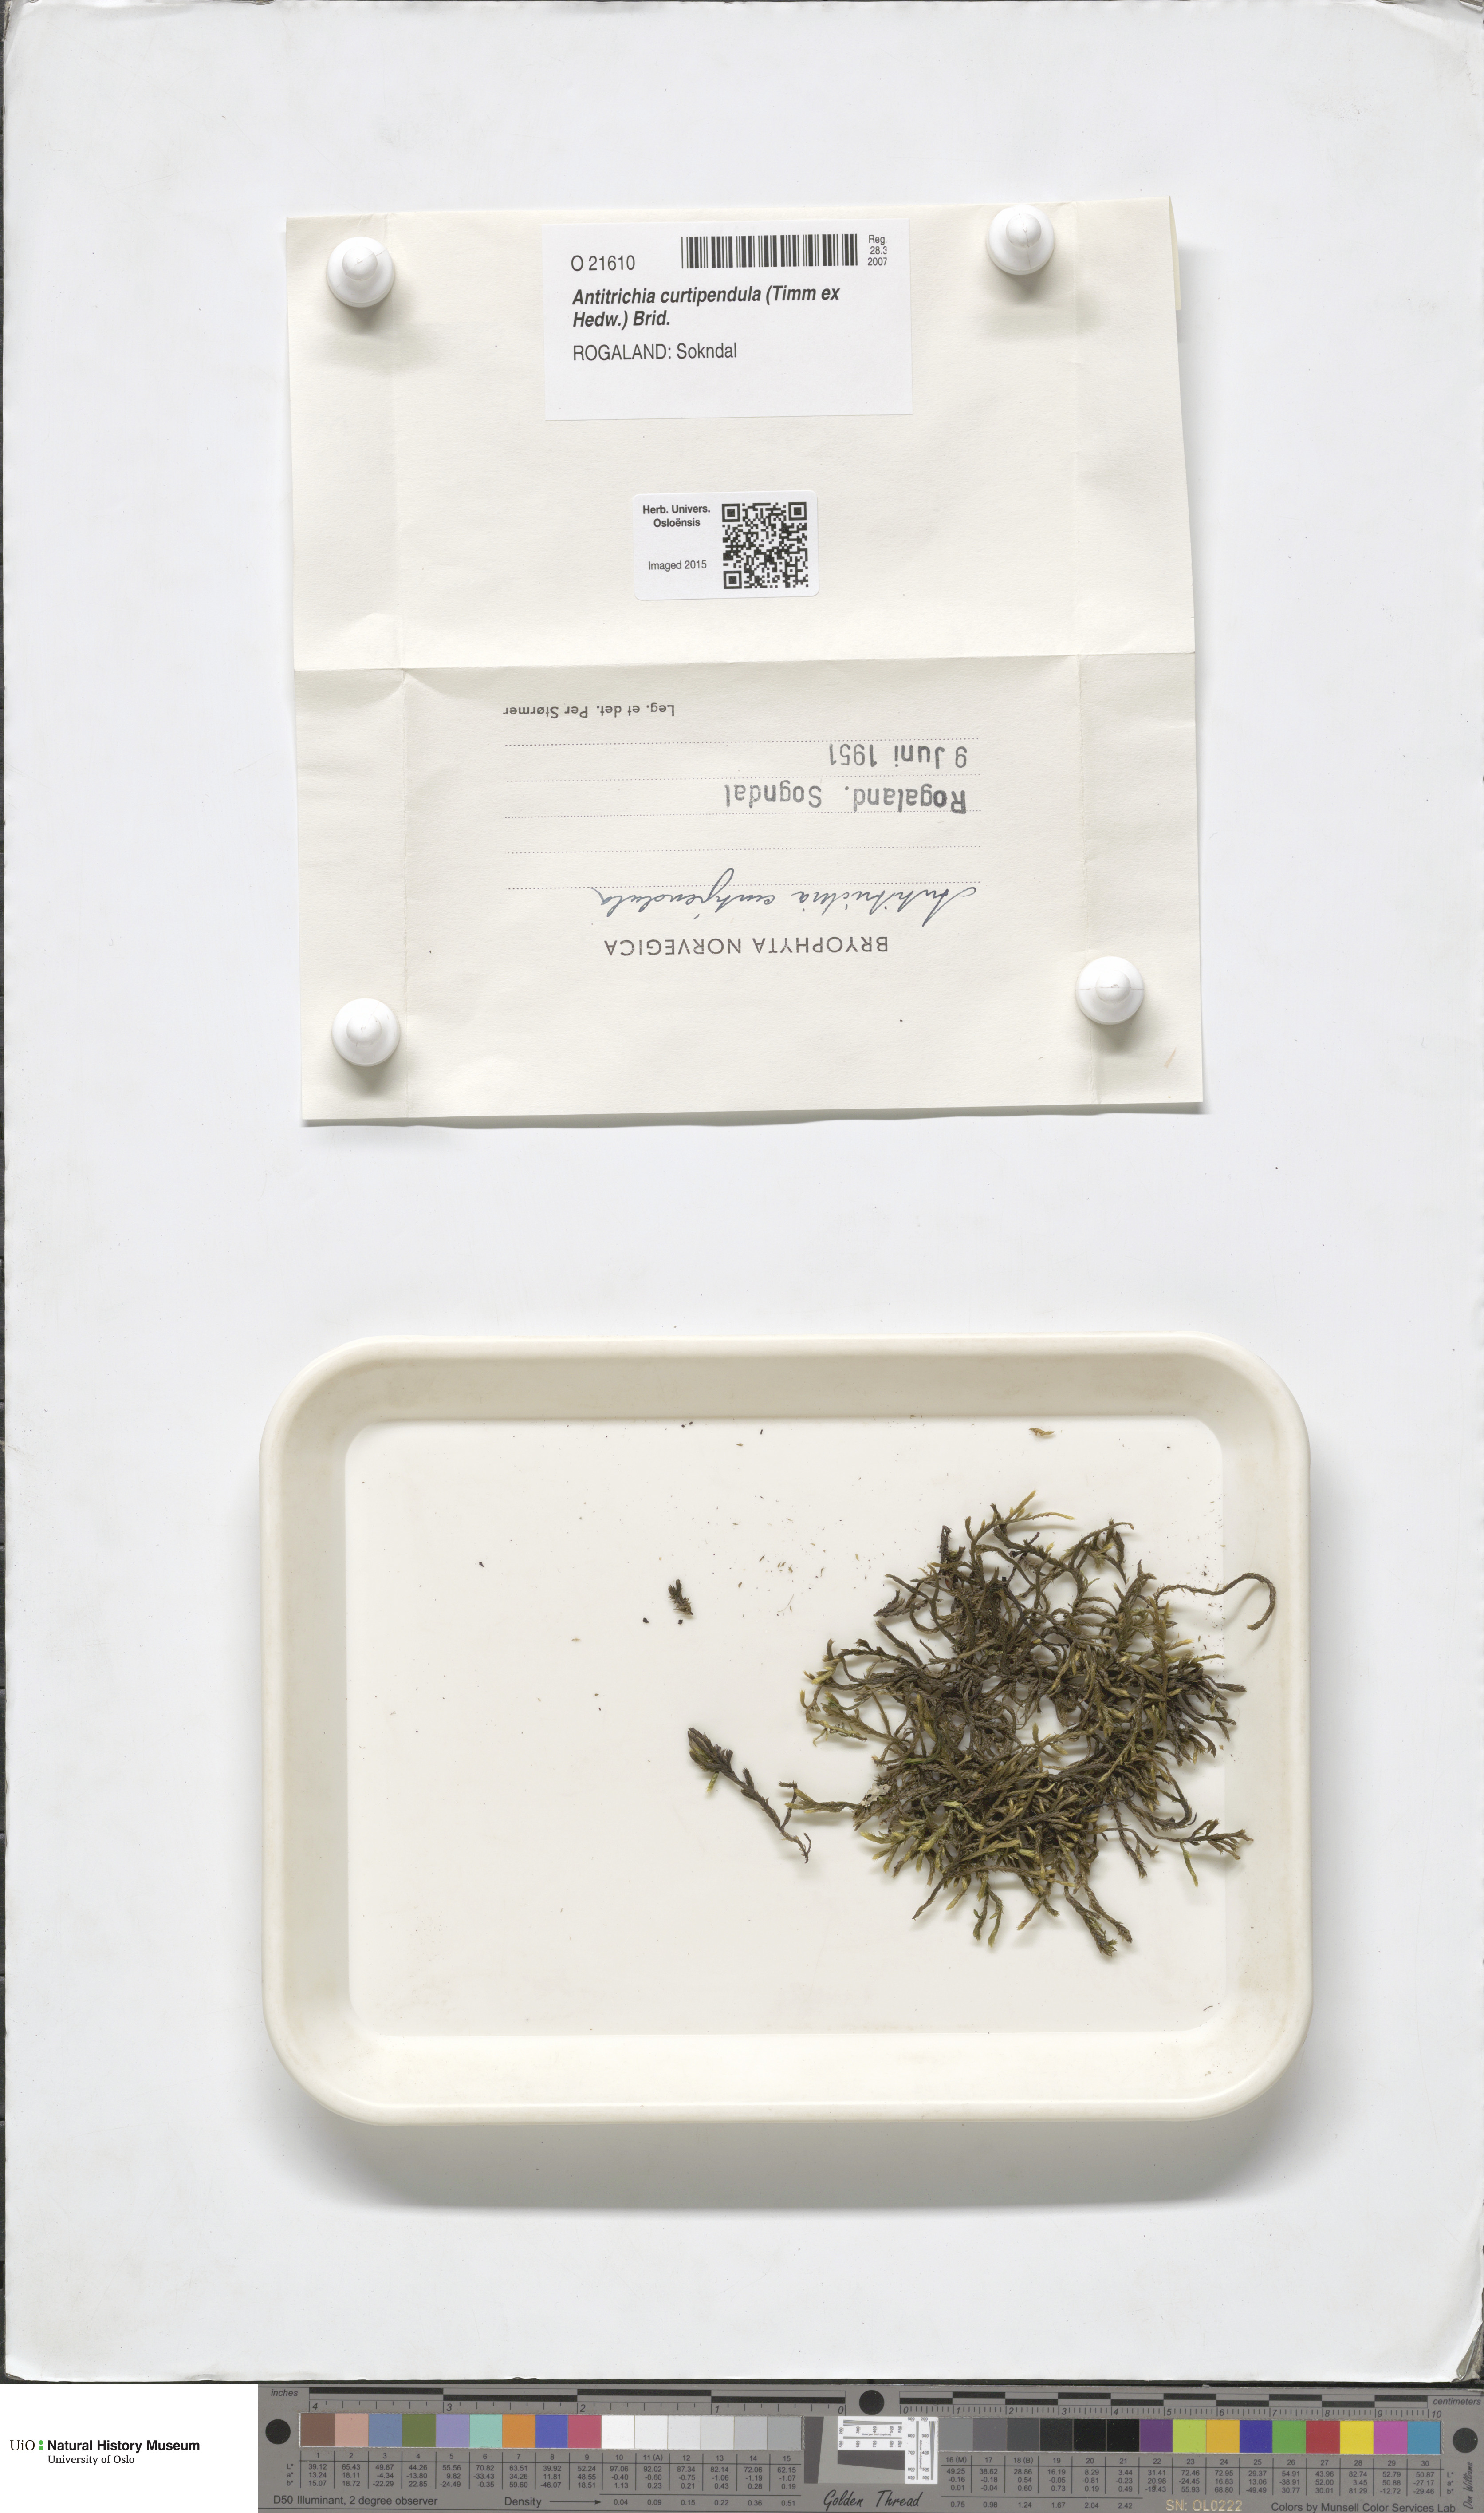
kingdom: Plantae
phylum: Bryophyta
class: Bryopsida
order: Hypnales
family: Antitrichiaceae
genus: Antitrichia
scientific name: Antitrichia curtipendula
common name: Pendulous wing-moss
